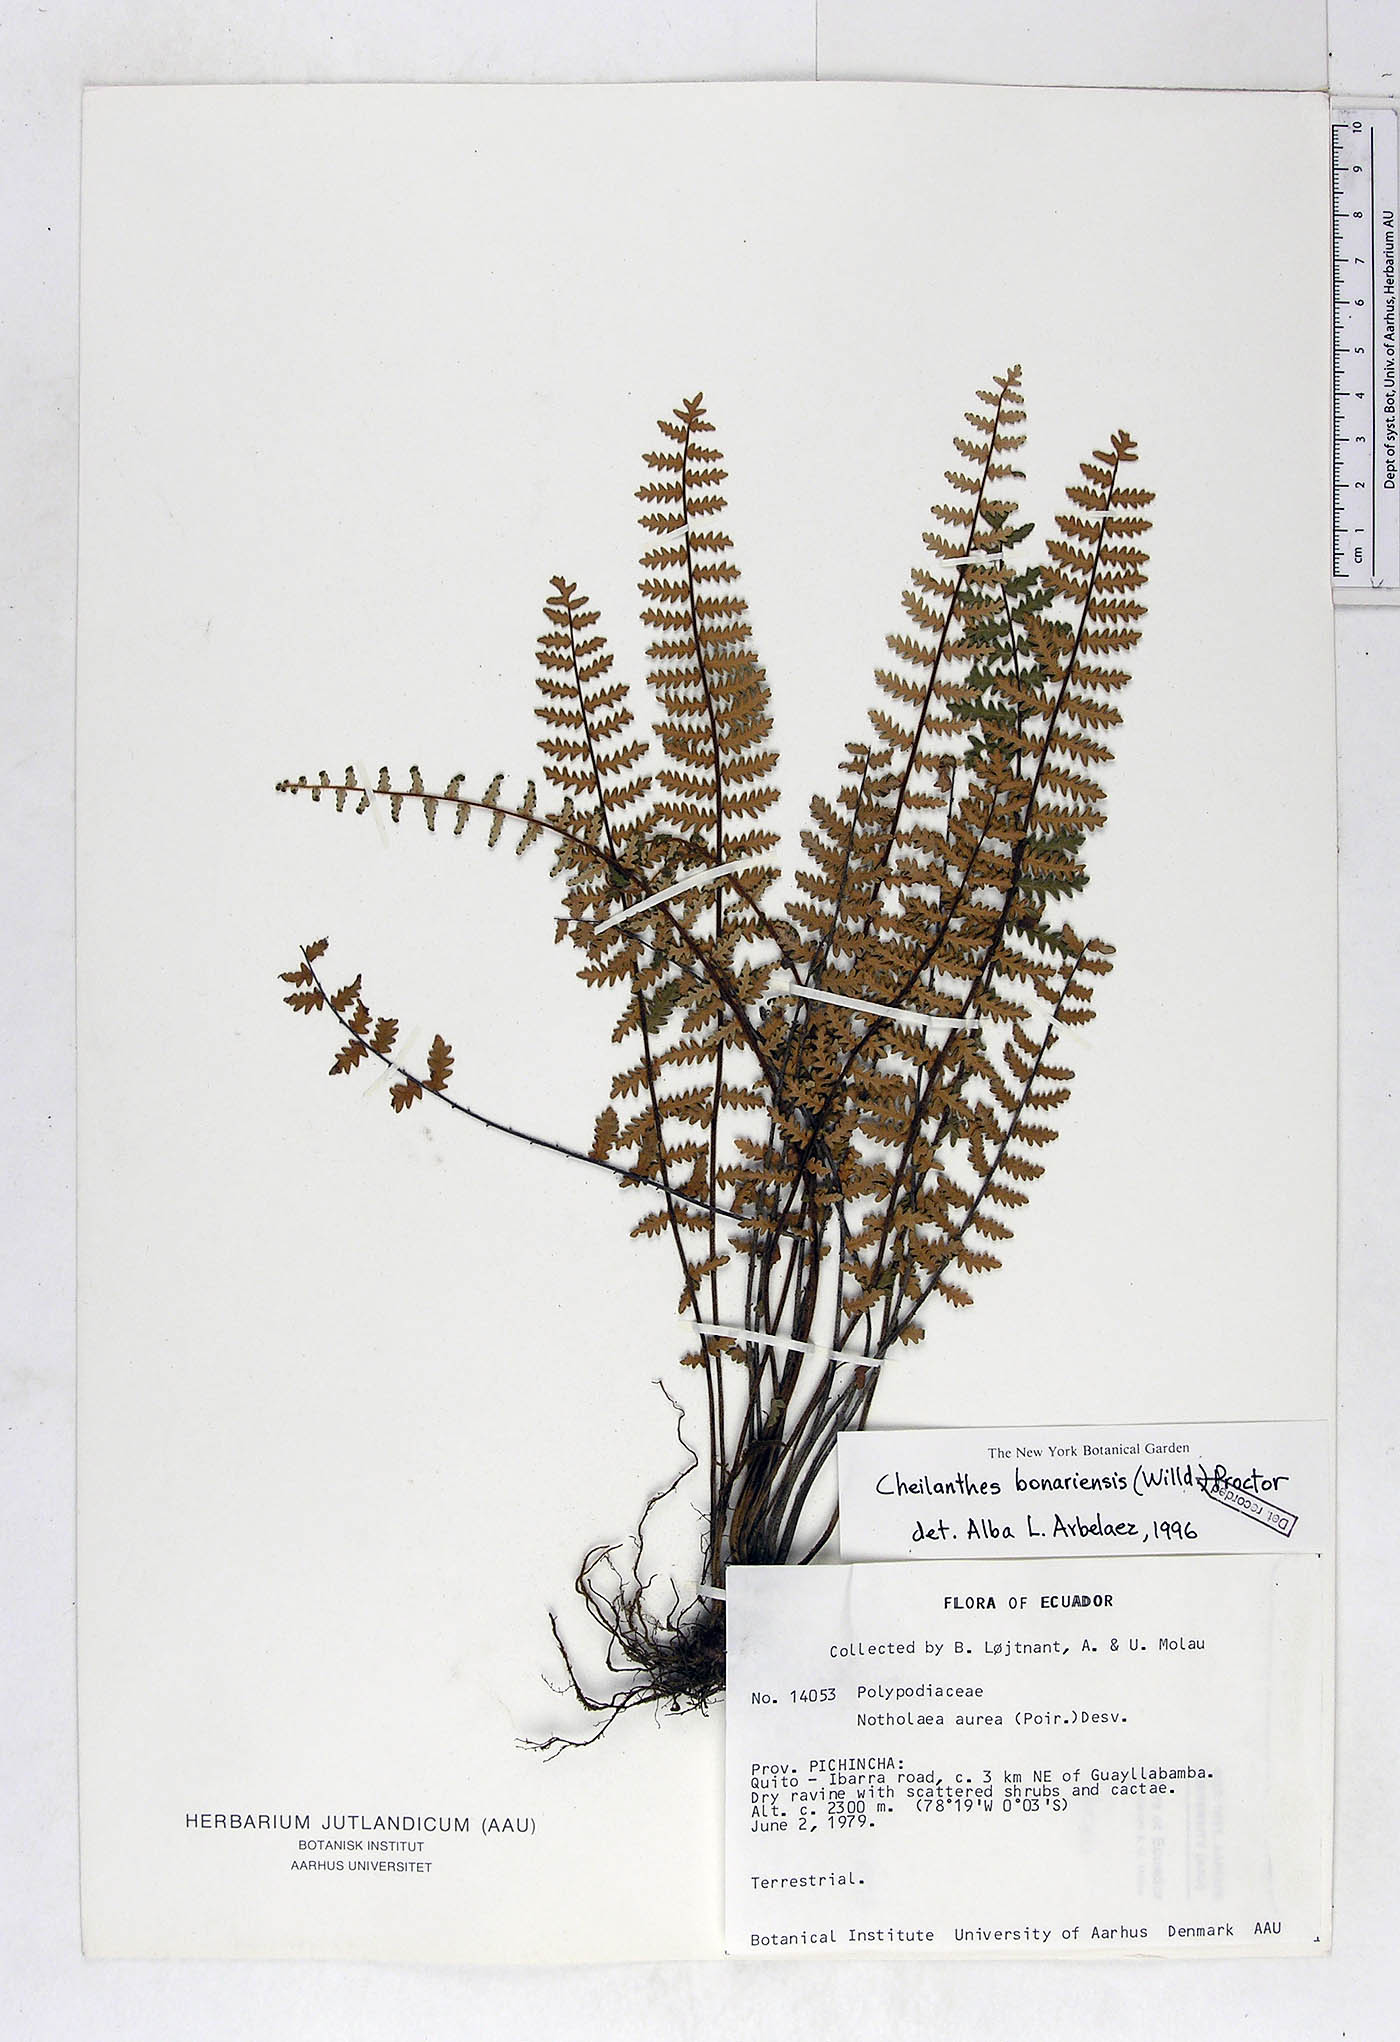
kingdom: Plantae
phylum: Tracheophyta
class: Polypodiopsida
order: Polypodiales
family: Pteridaceae
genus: Myriopteris
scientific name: Myriopteris aurea
